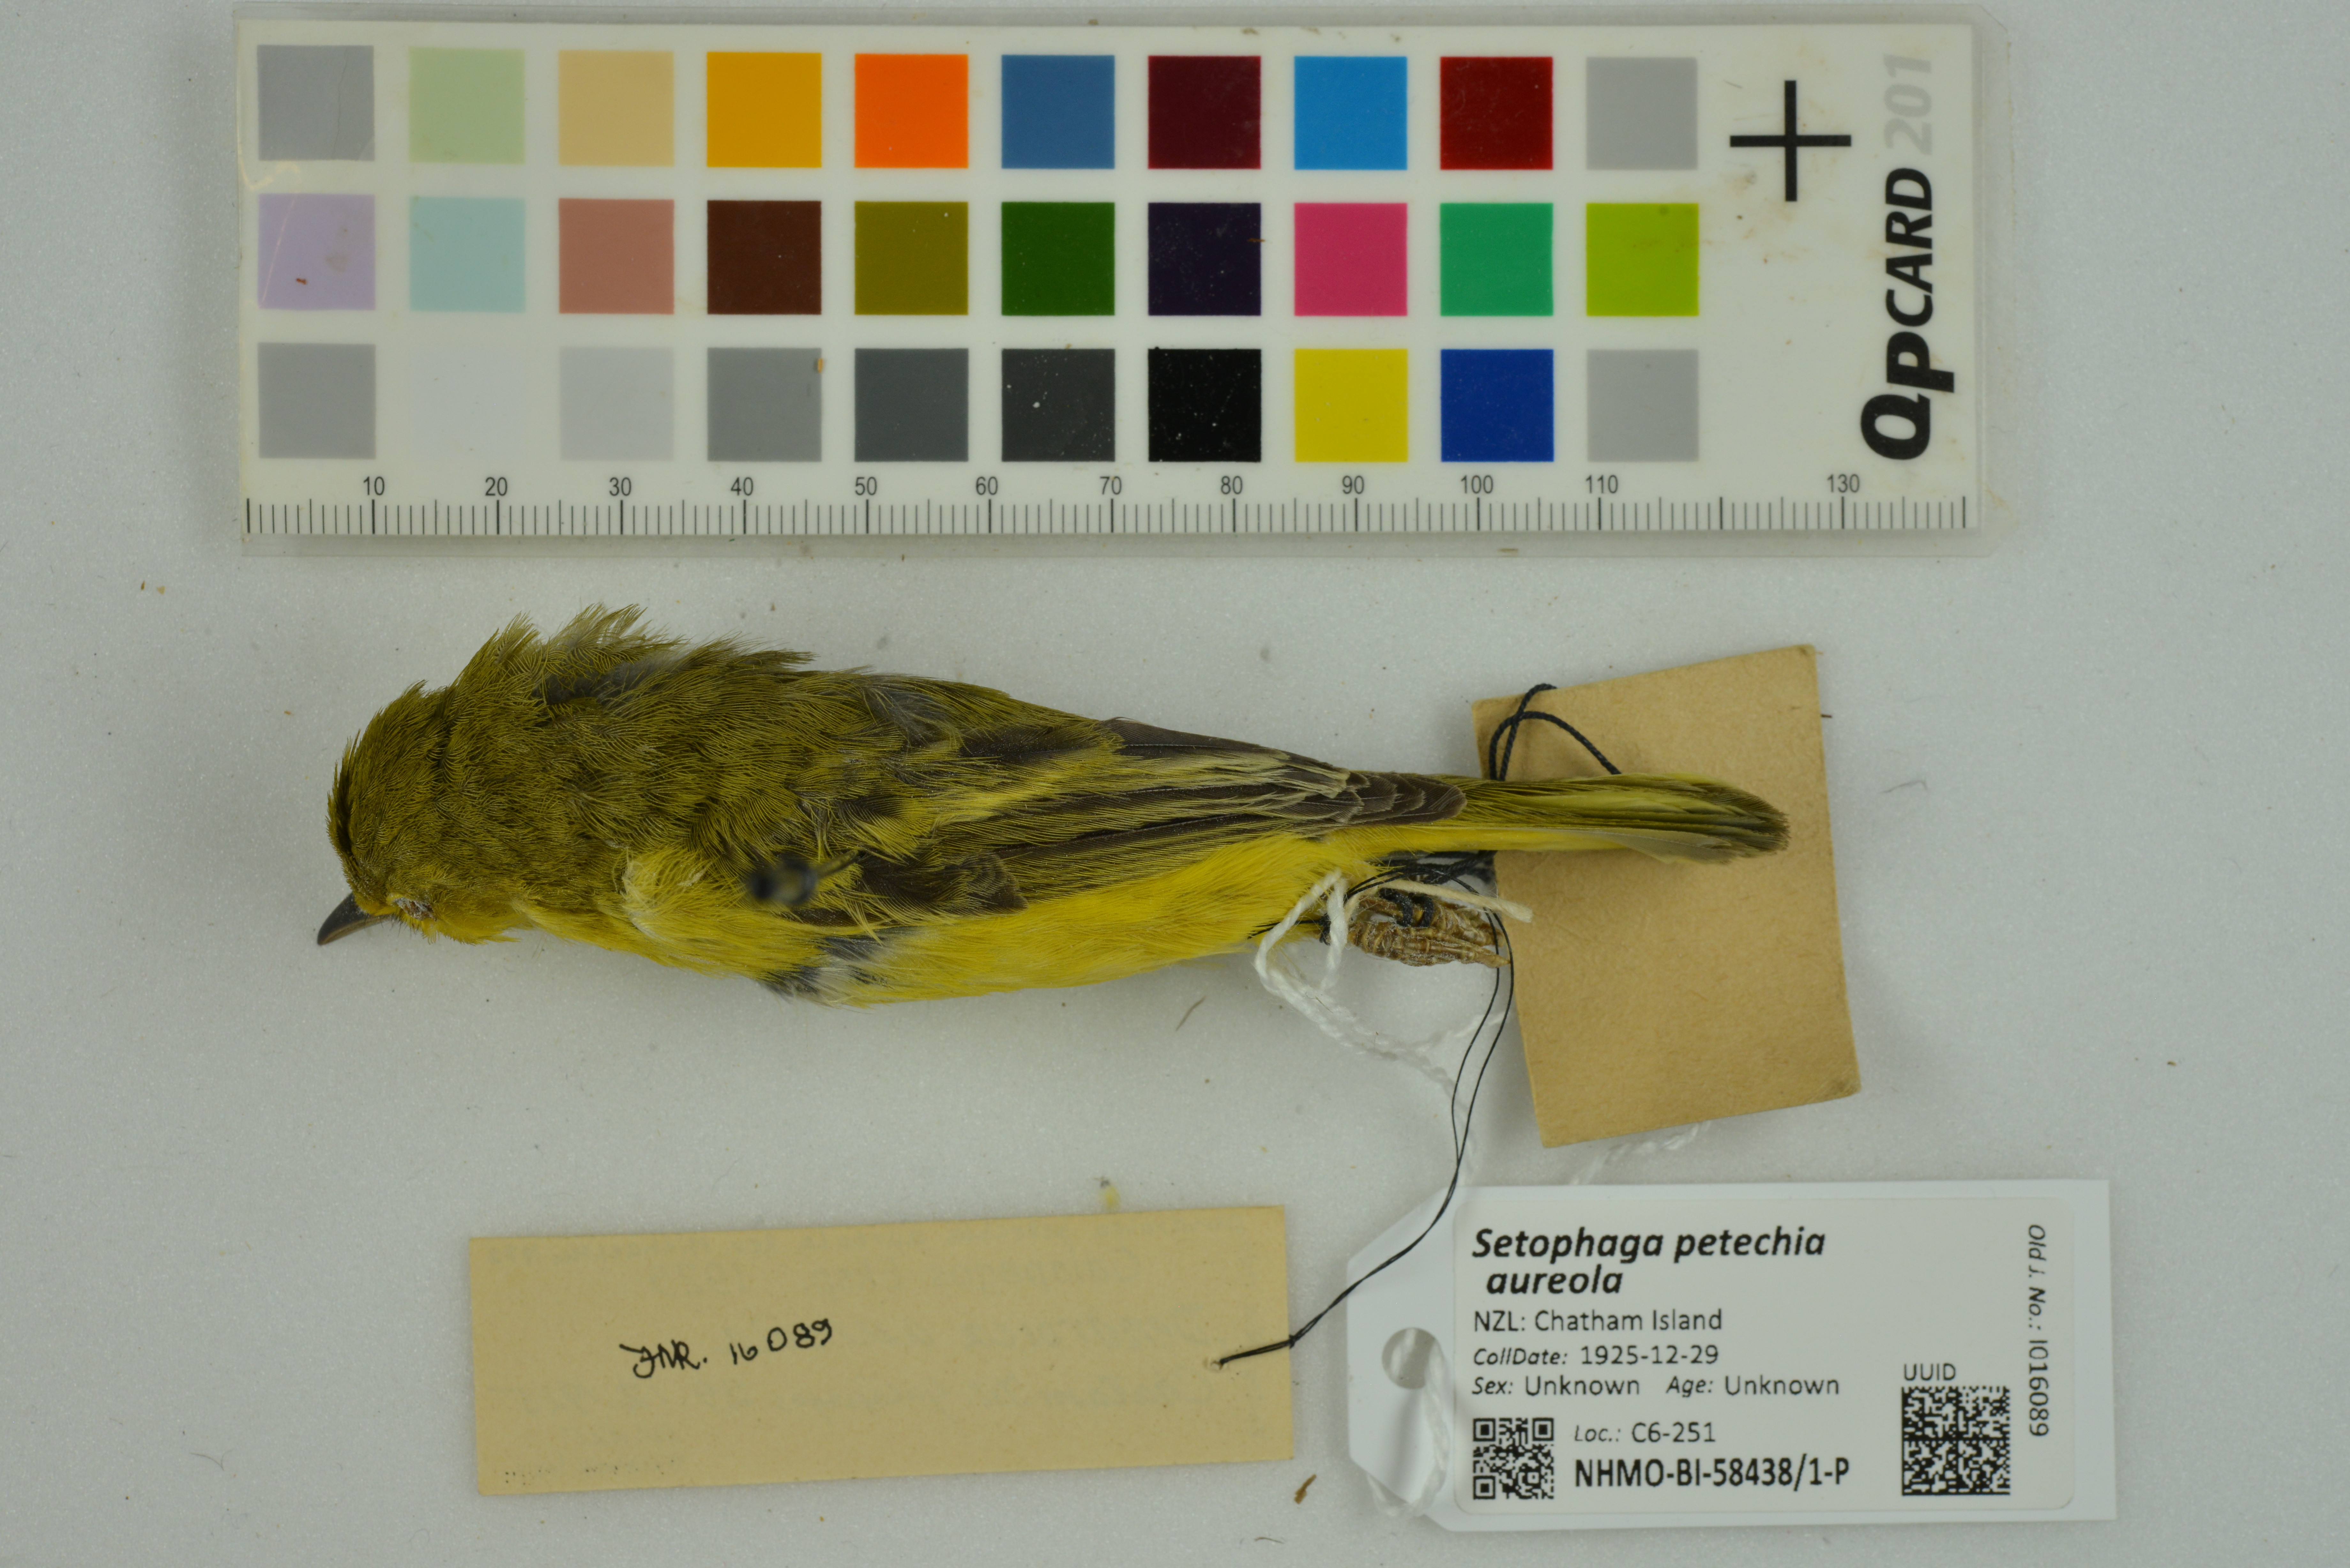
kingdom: Animalia
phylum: Chordata
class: Aves
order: Passeriformes
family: Parulidae
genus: Setophaga
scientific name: Setophaga petechia
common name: Yellow warbler
